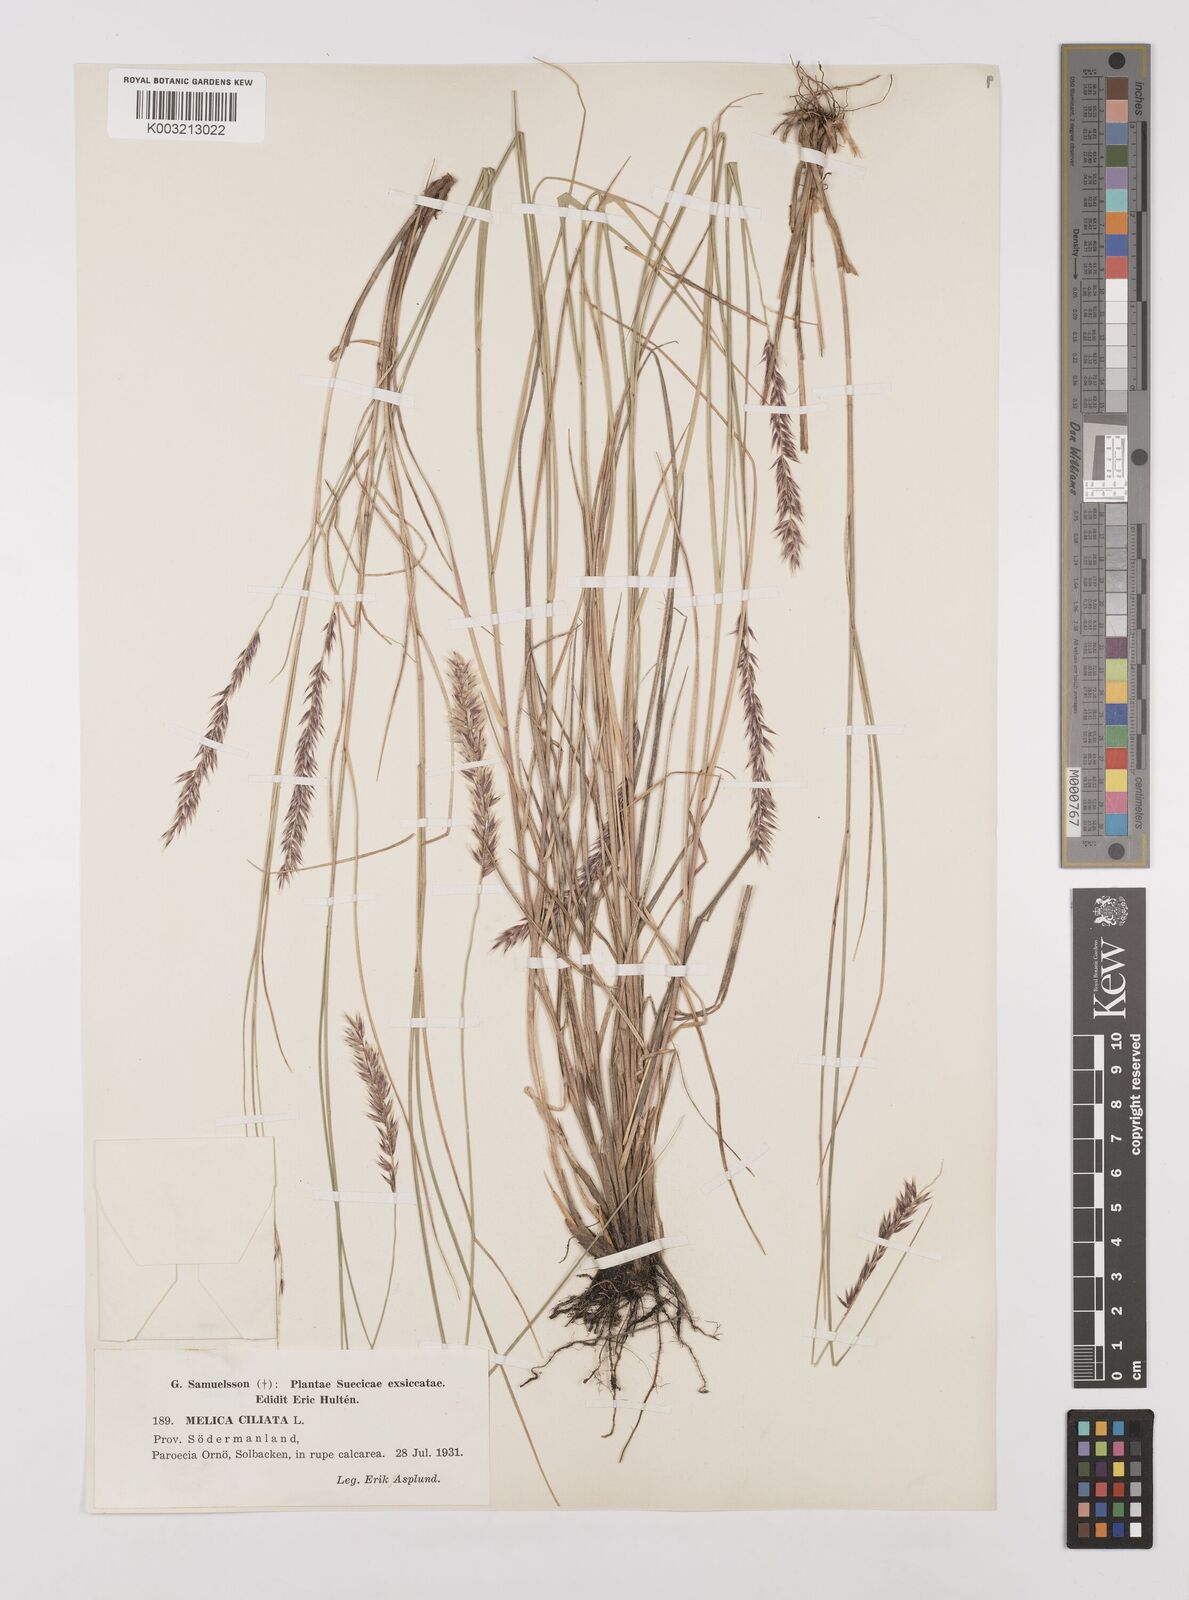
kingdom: Plantae
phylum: Tracheophyta
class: Liliopsida
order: Poales
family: Poaceae
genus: Melica
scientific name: Melica ciliata
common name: Hairy melicgrass
